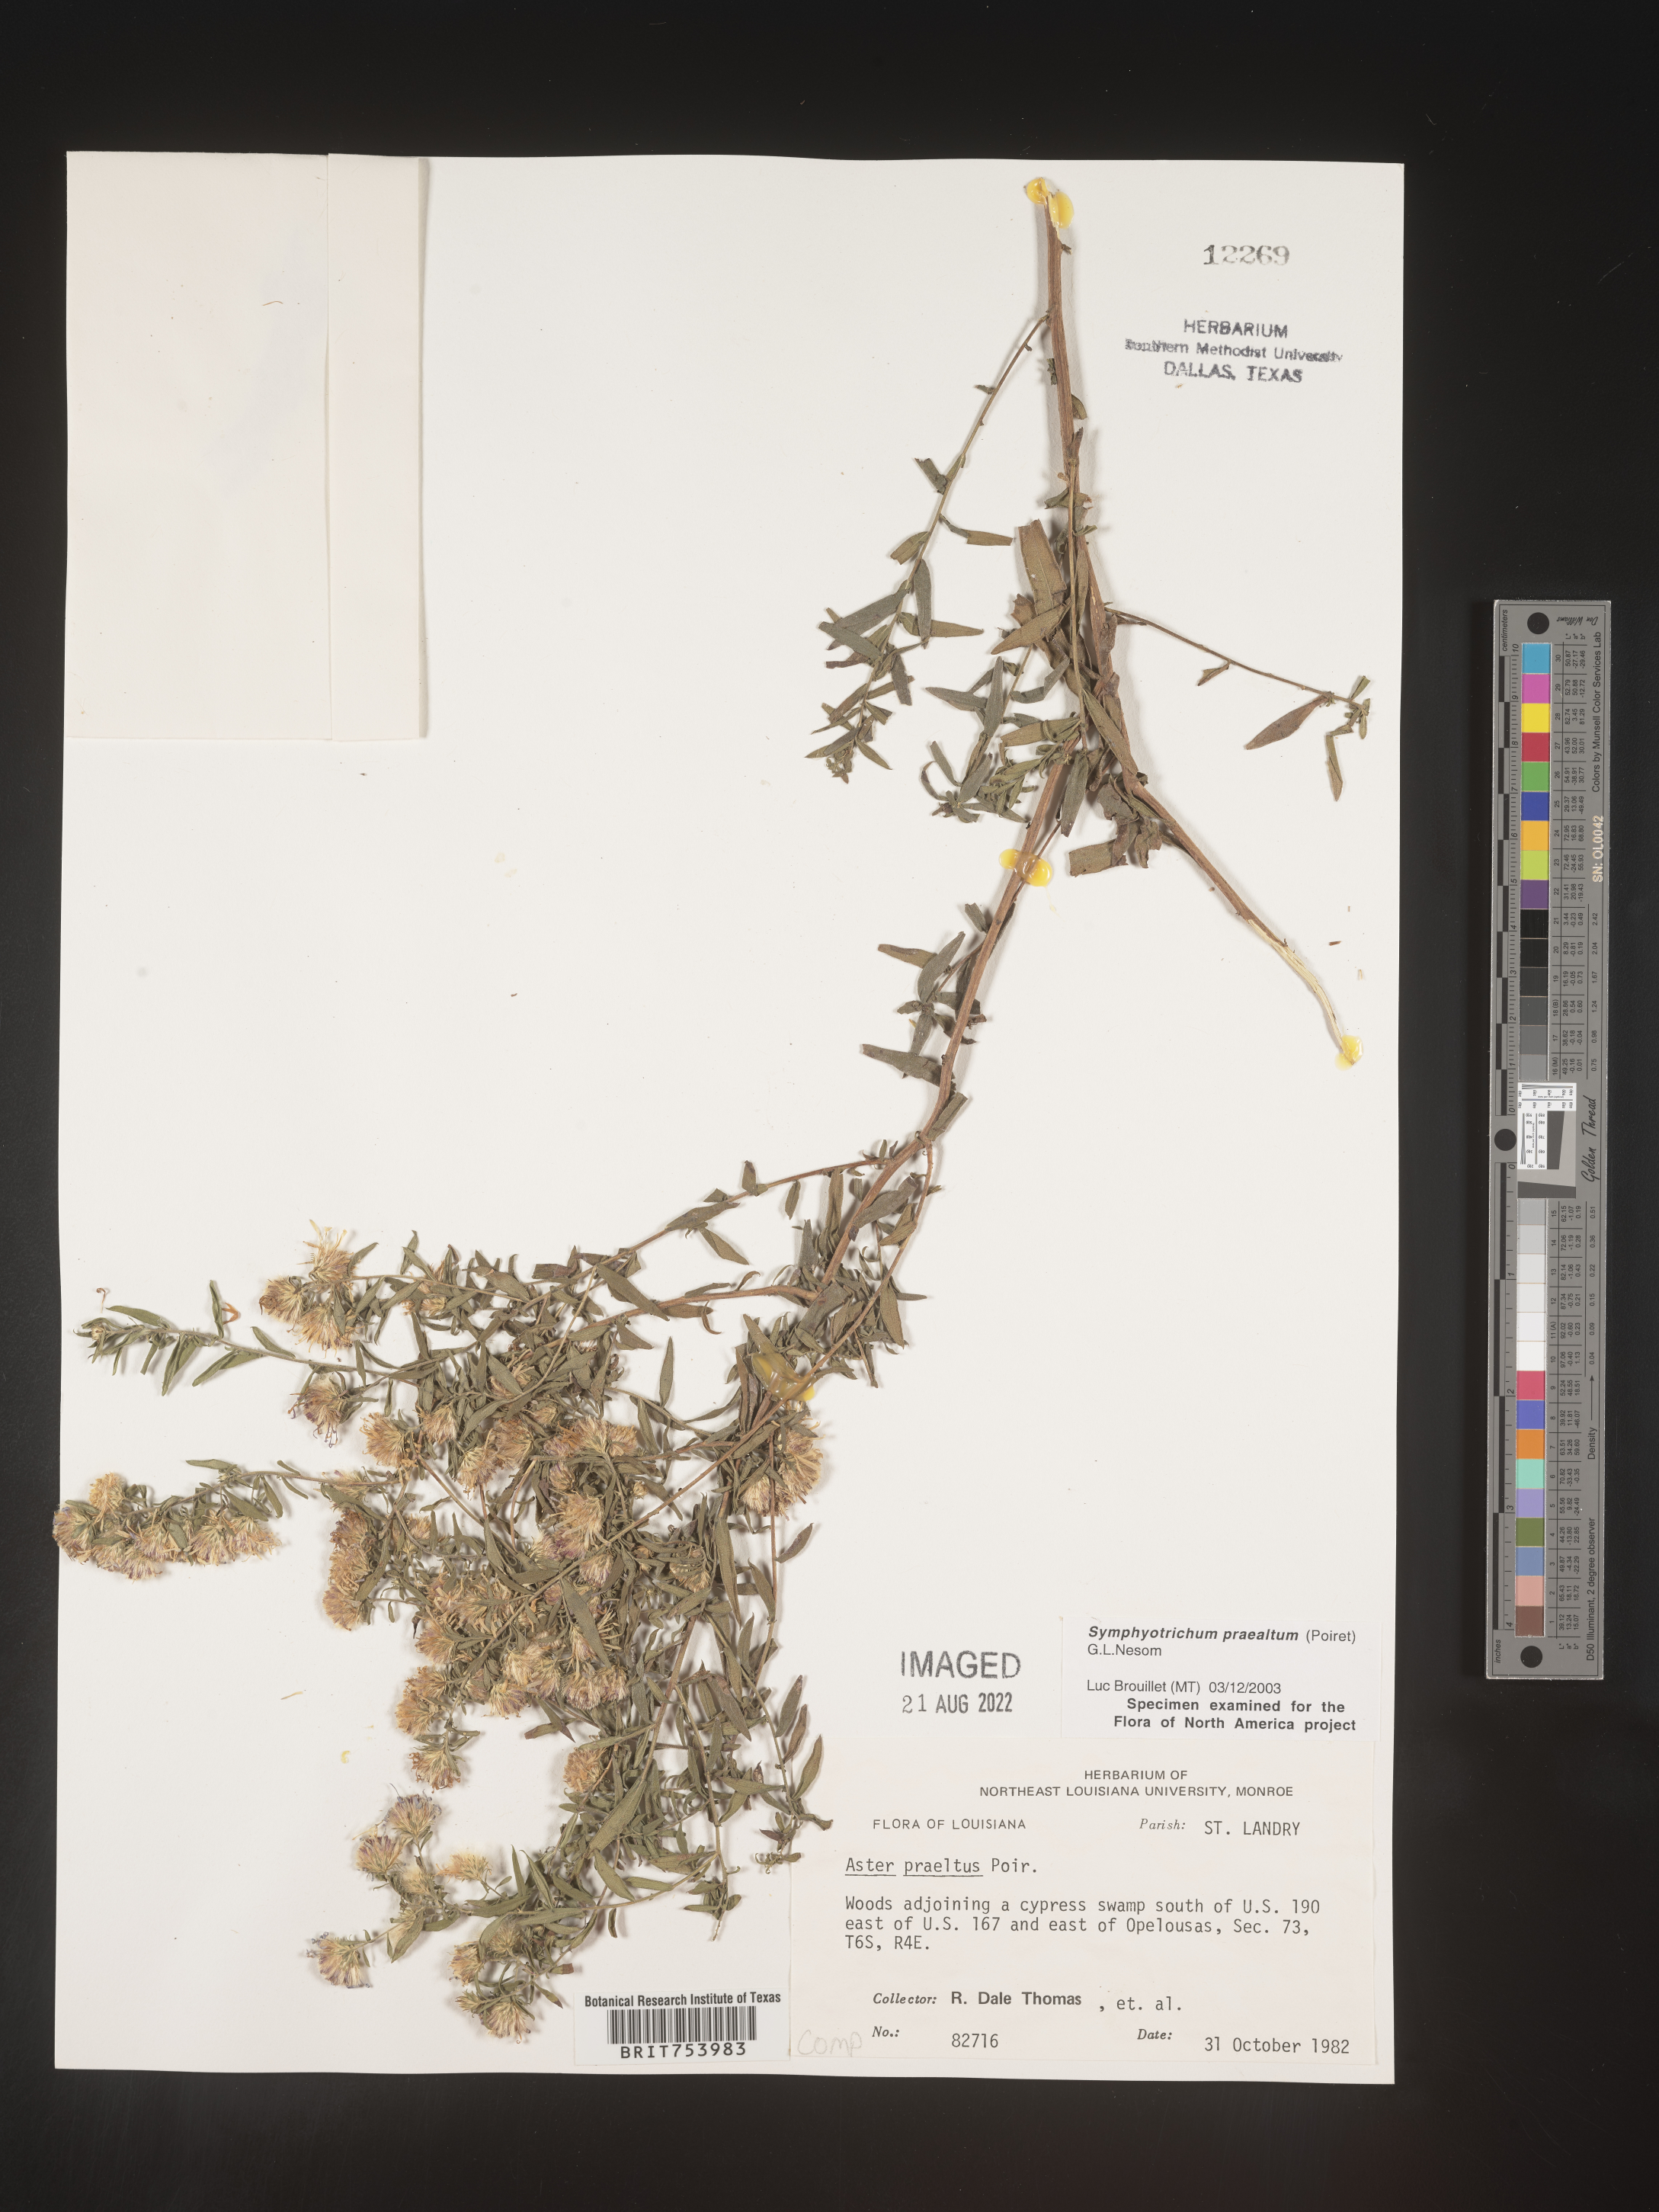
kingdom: Plantae
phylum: Tracheophyta
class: Magnoliopsida
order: Asterales
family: Asteraceae
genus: Symphyotrichum
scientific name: Symphyotrichum praealtum
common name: Willow aster
